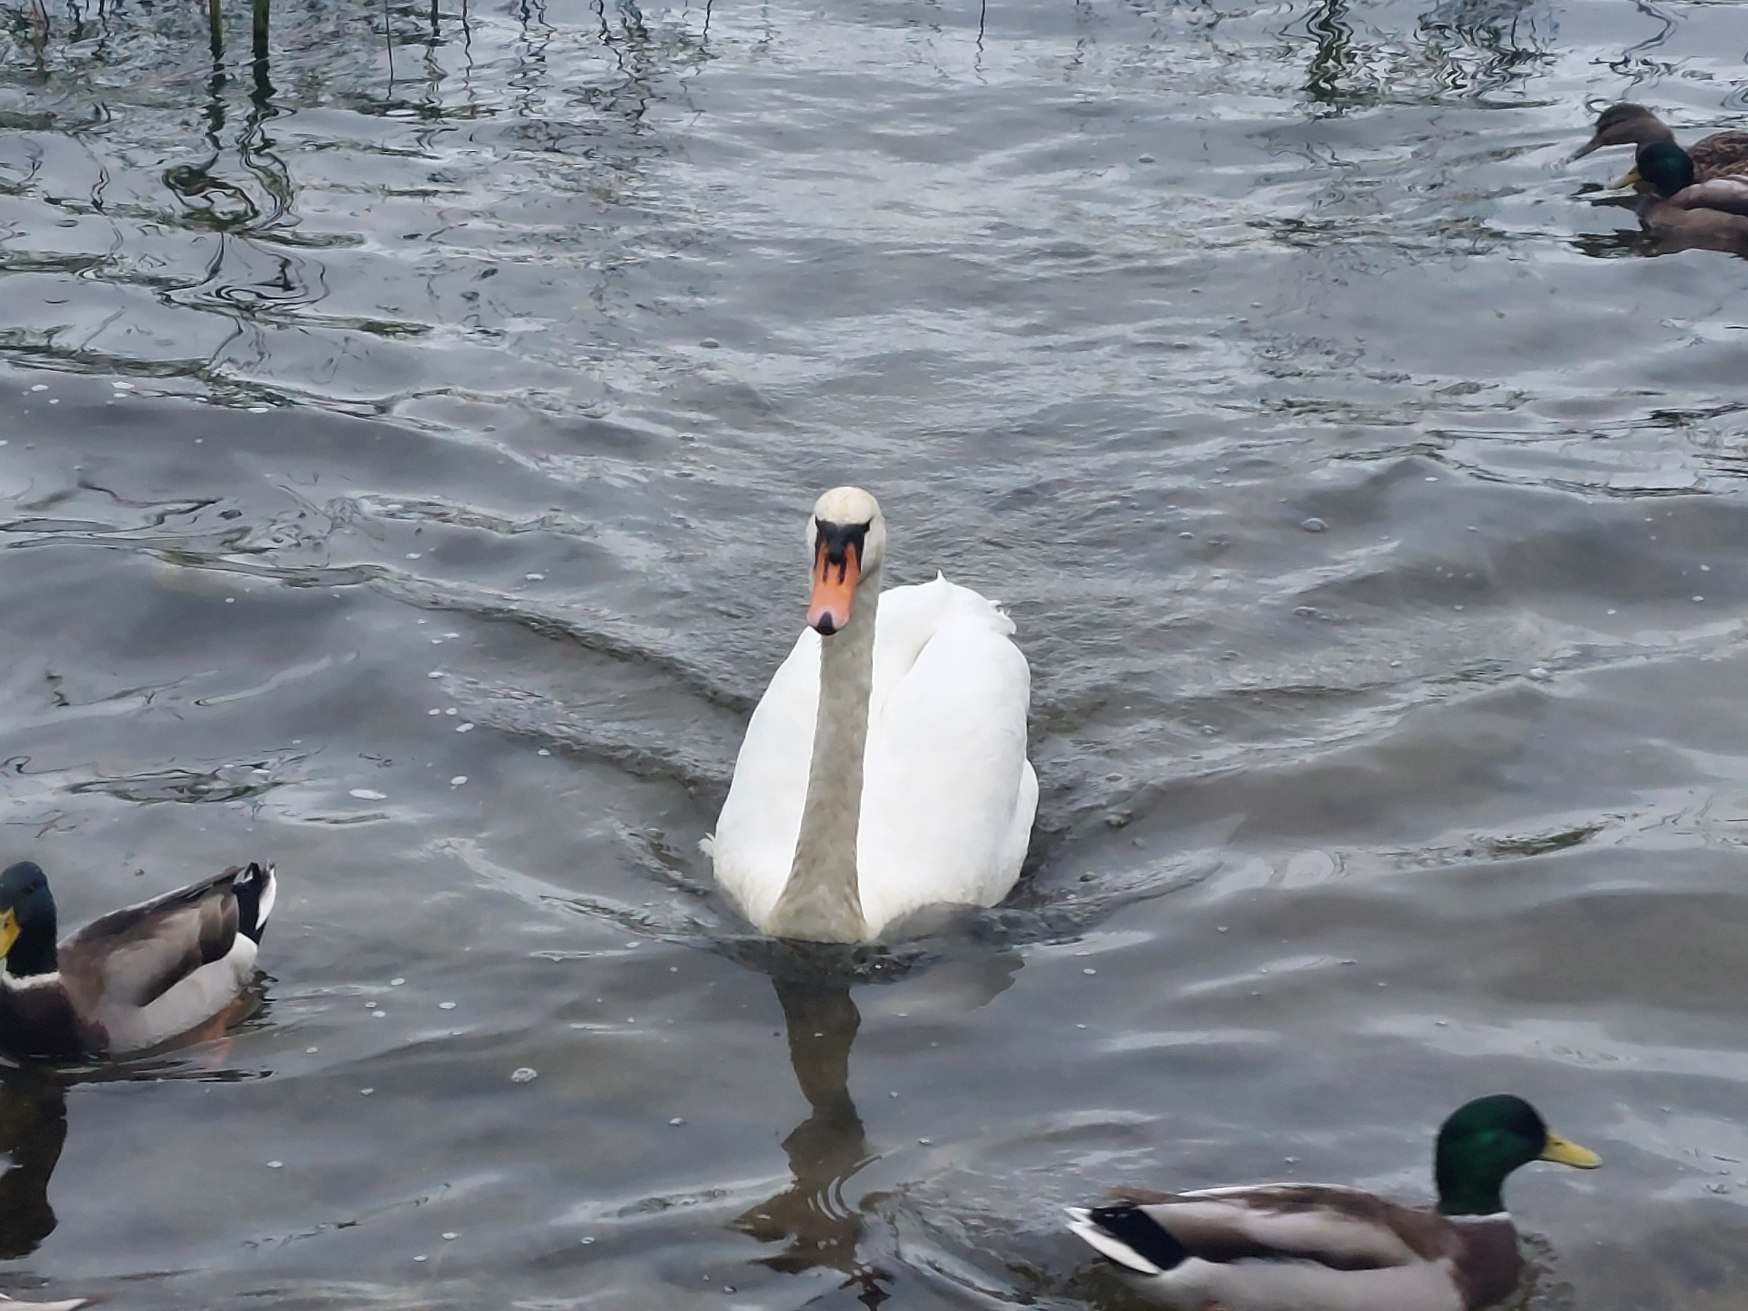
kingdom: Animalia
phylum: Chordata
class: Aves
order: Anseriformes
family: Anatidae
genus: Cygnus
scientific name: Cygnus olor
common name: Knopsvane
